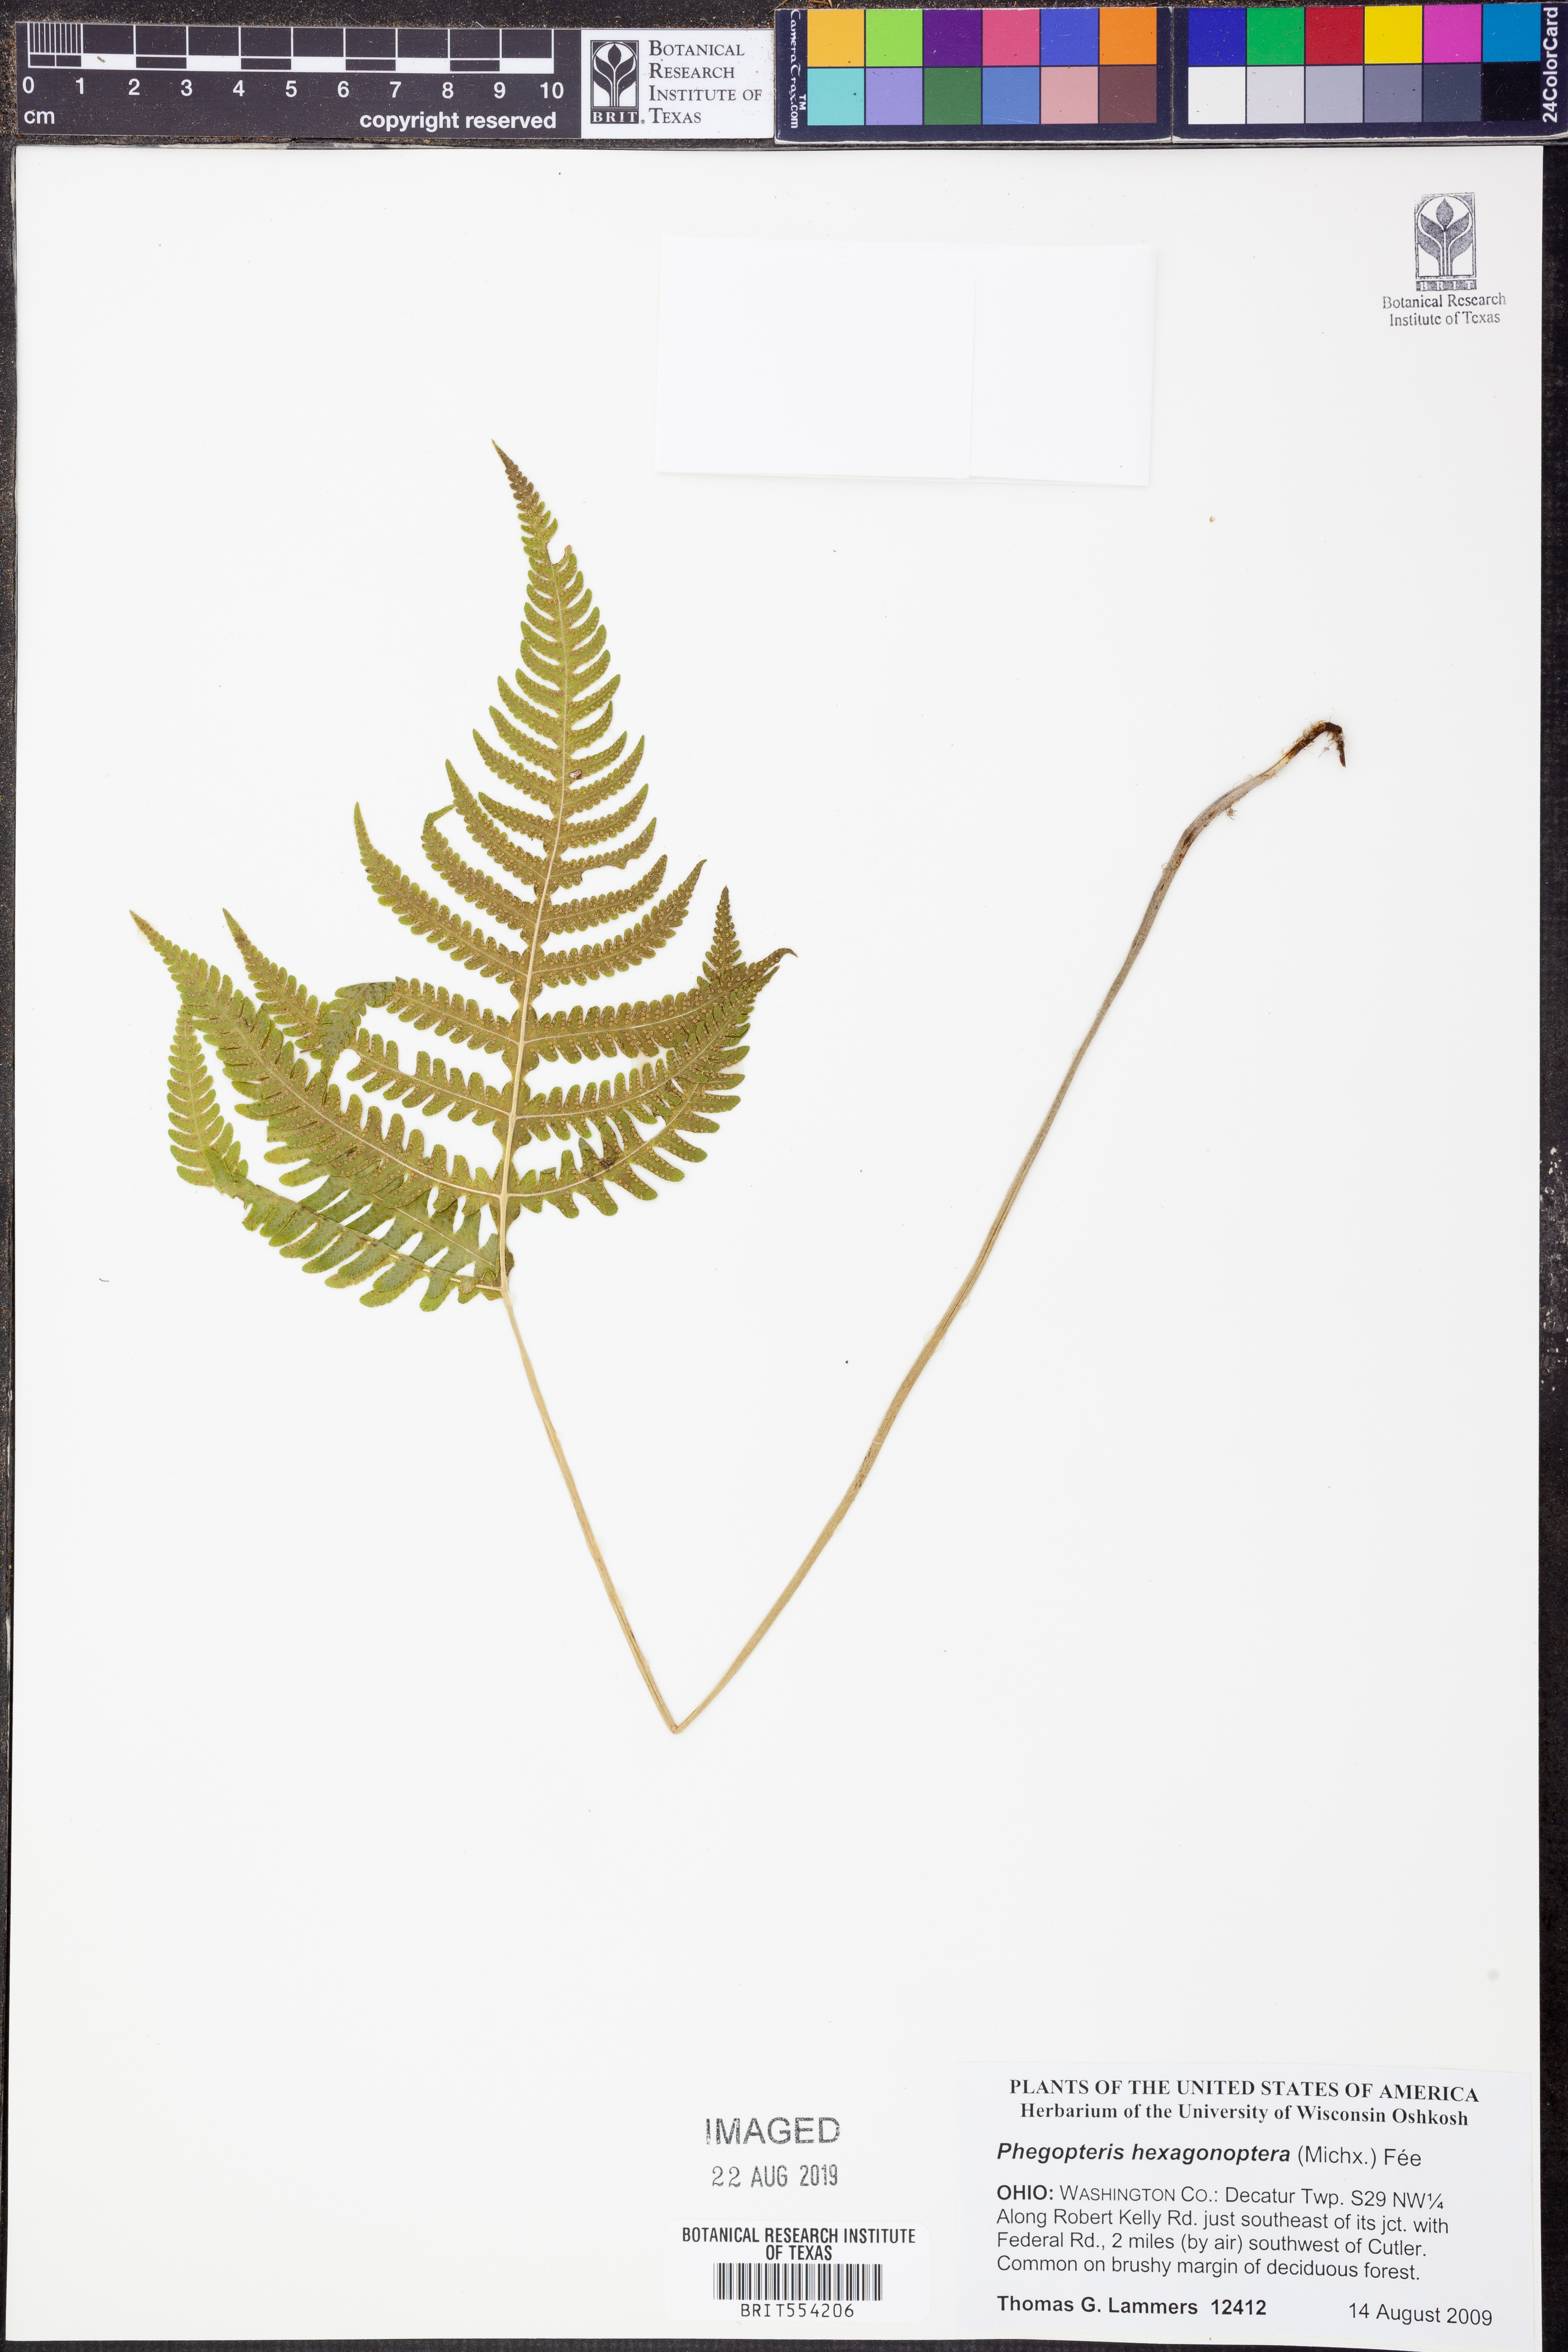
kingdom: Plantae
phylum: Tracheophyta
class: Polypodiopsida
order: Polypodiales
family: Thelypteridaceae
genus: Phegopteris
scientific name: Phegopteris hexagonoptera
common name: Broad beech fern
